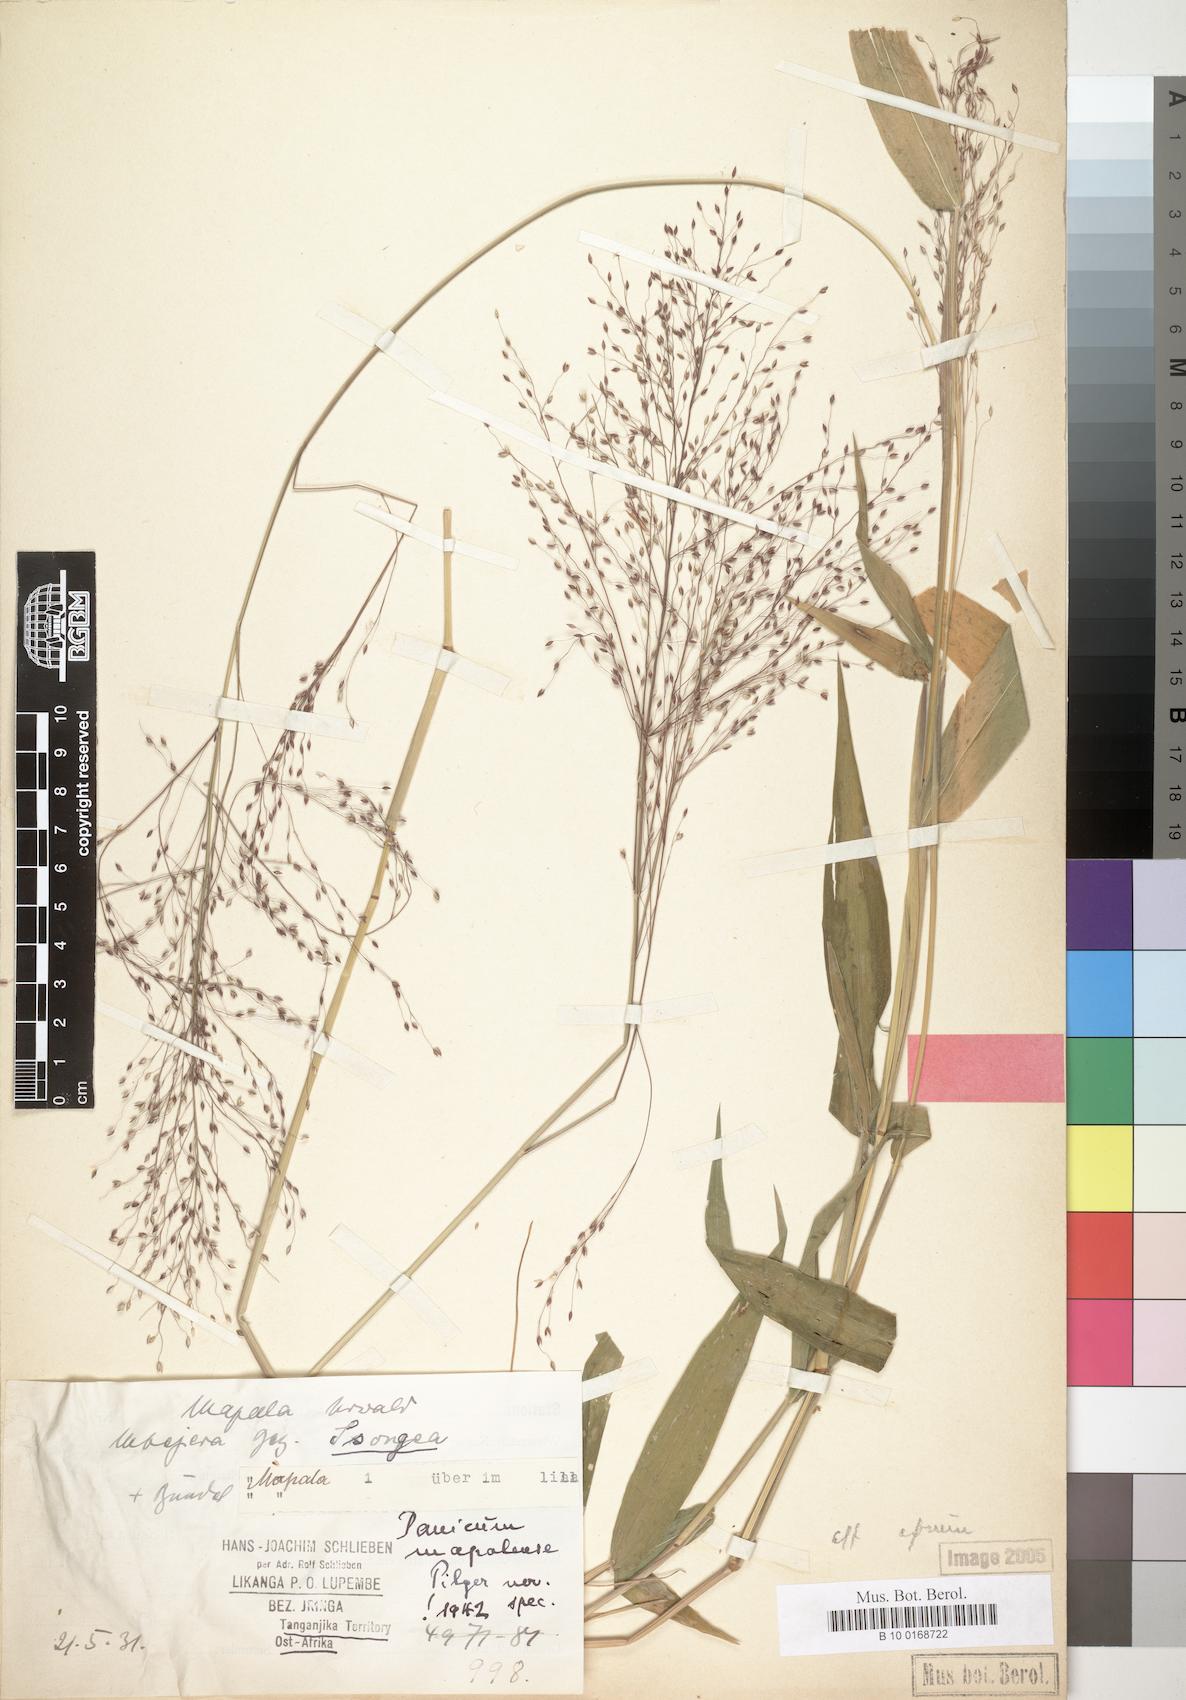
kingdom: Plantae
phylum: Tracheophyta
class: Liliopsida
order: Poales
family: Poaceae
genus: Panicum
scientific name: Panicum mapalense
